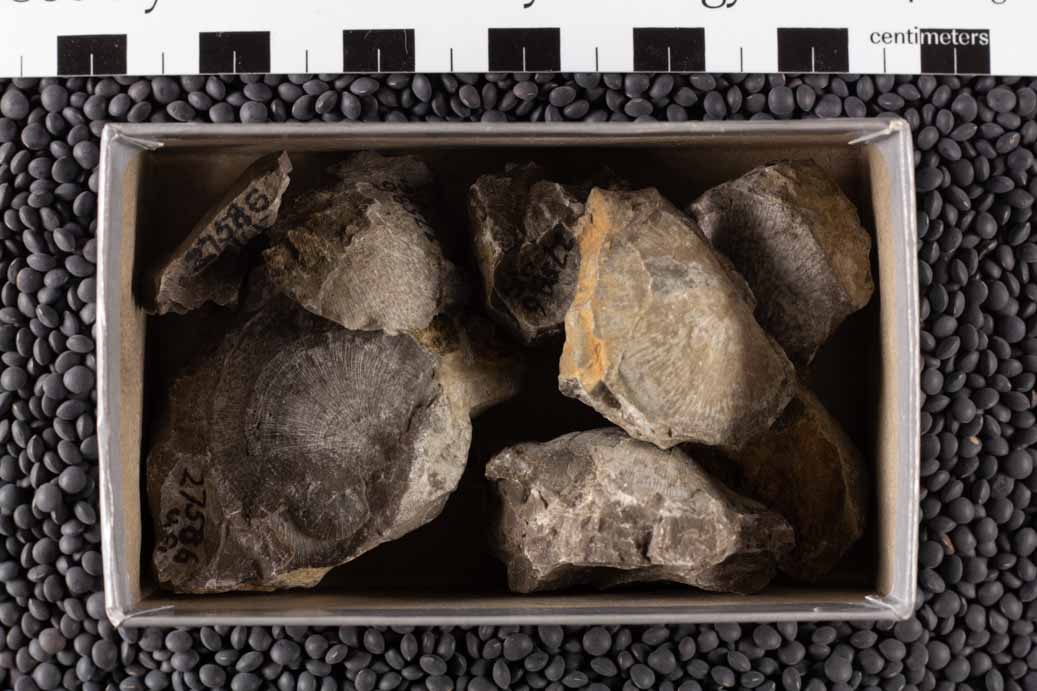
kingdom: Animalia
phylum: Brachiopoda
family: Strophomenidae
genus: Strophomena
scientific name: Strophomena
